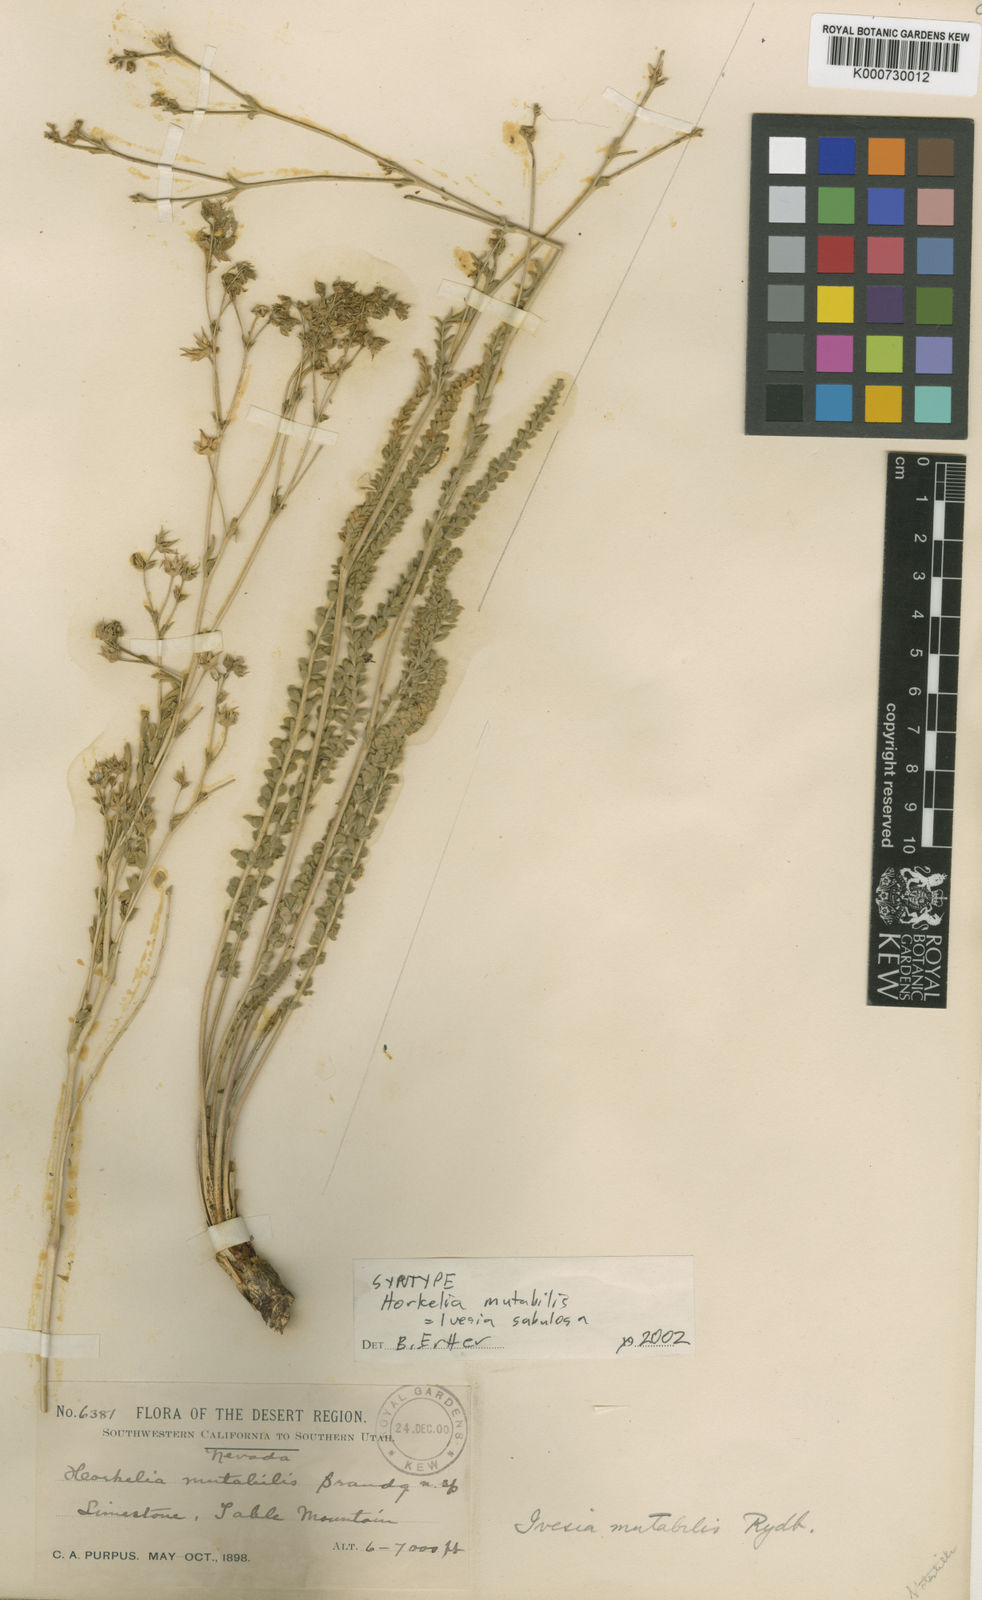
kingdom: Plantae
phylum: Tracheophyta
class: Magnoliopsida
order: Rosales
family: Rosaceae
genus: Potentilla
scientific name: Potentilla
